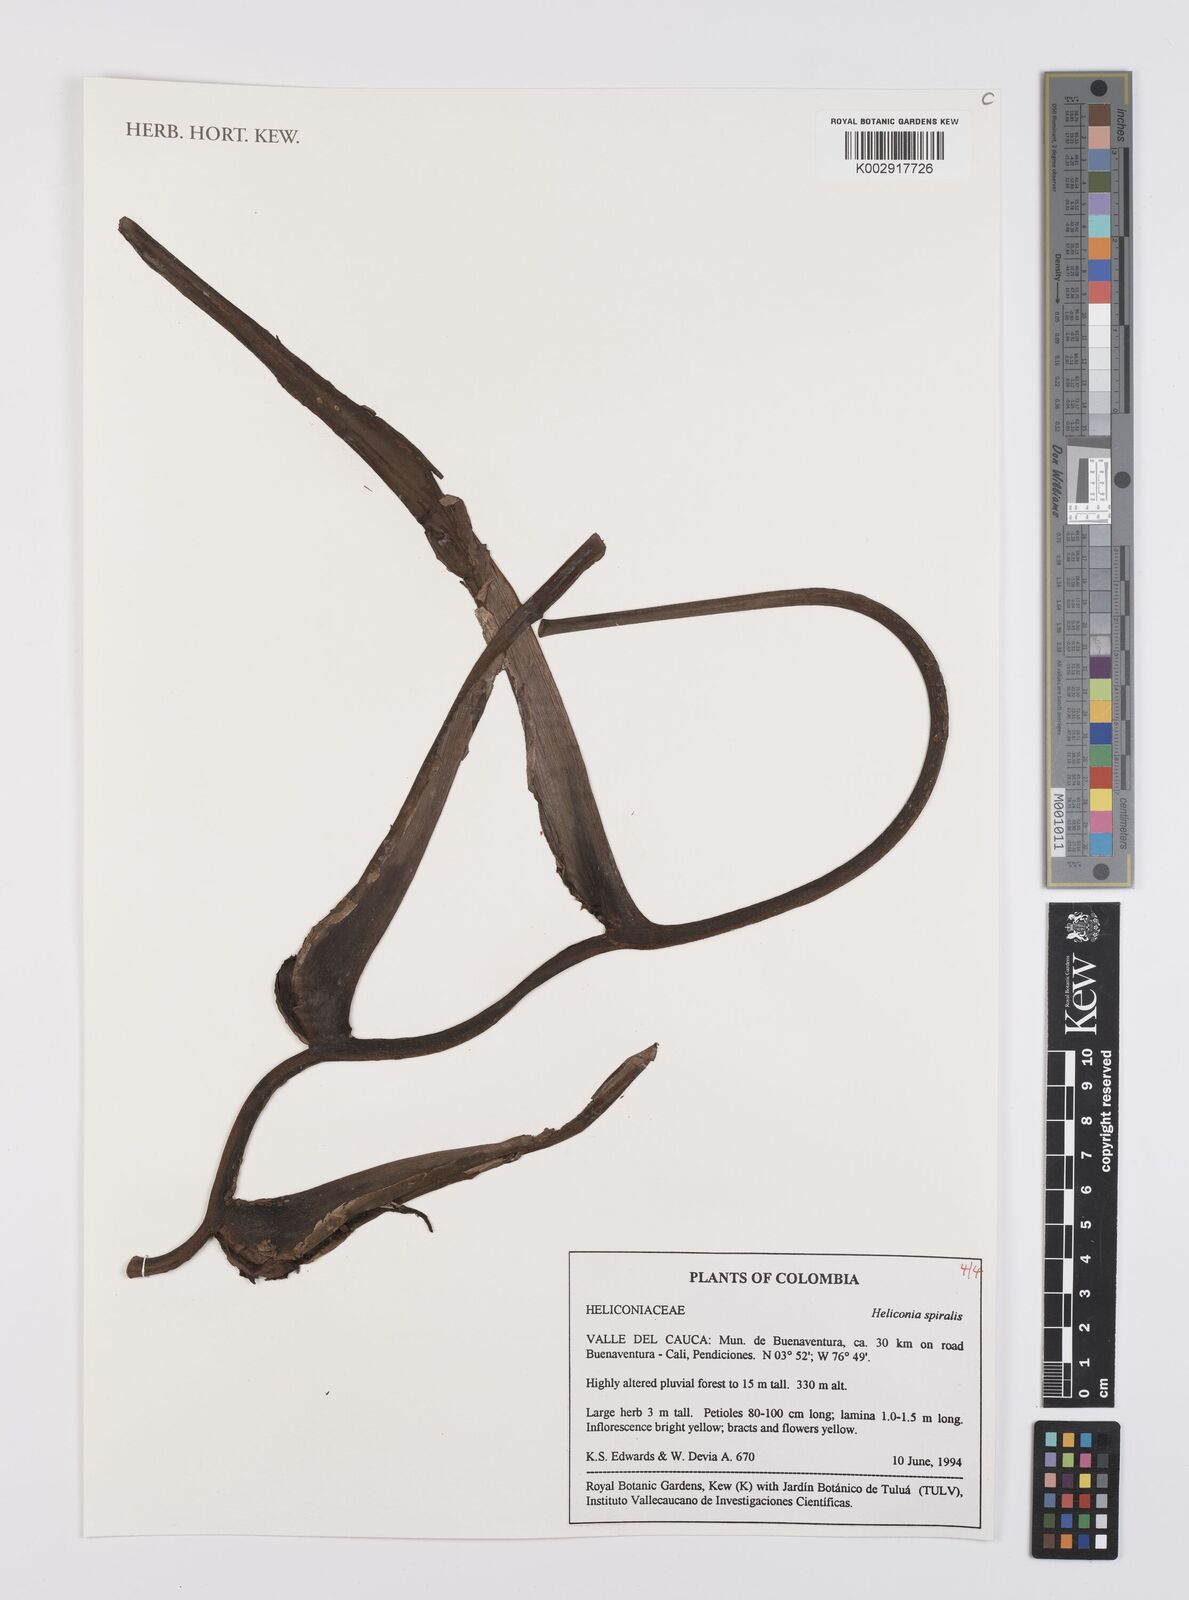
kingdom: Plantae
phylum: Tracheophyta
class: Liliopsida
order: Zingiberales
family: Heliconiaceae
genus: Heliconia
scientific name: Heliconia spiralis
